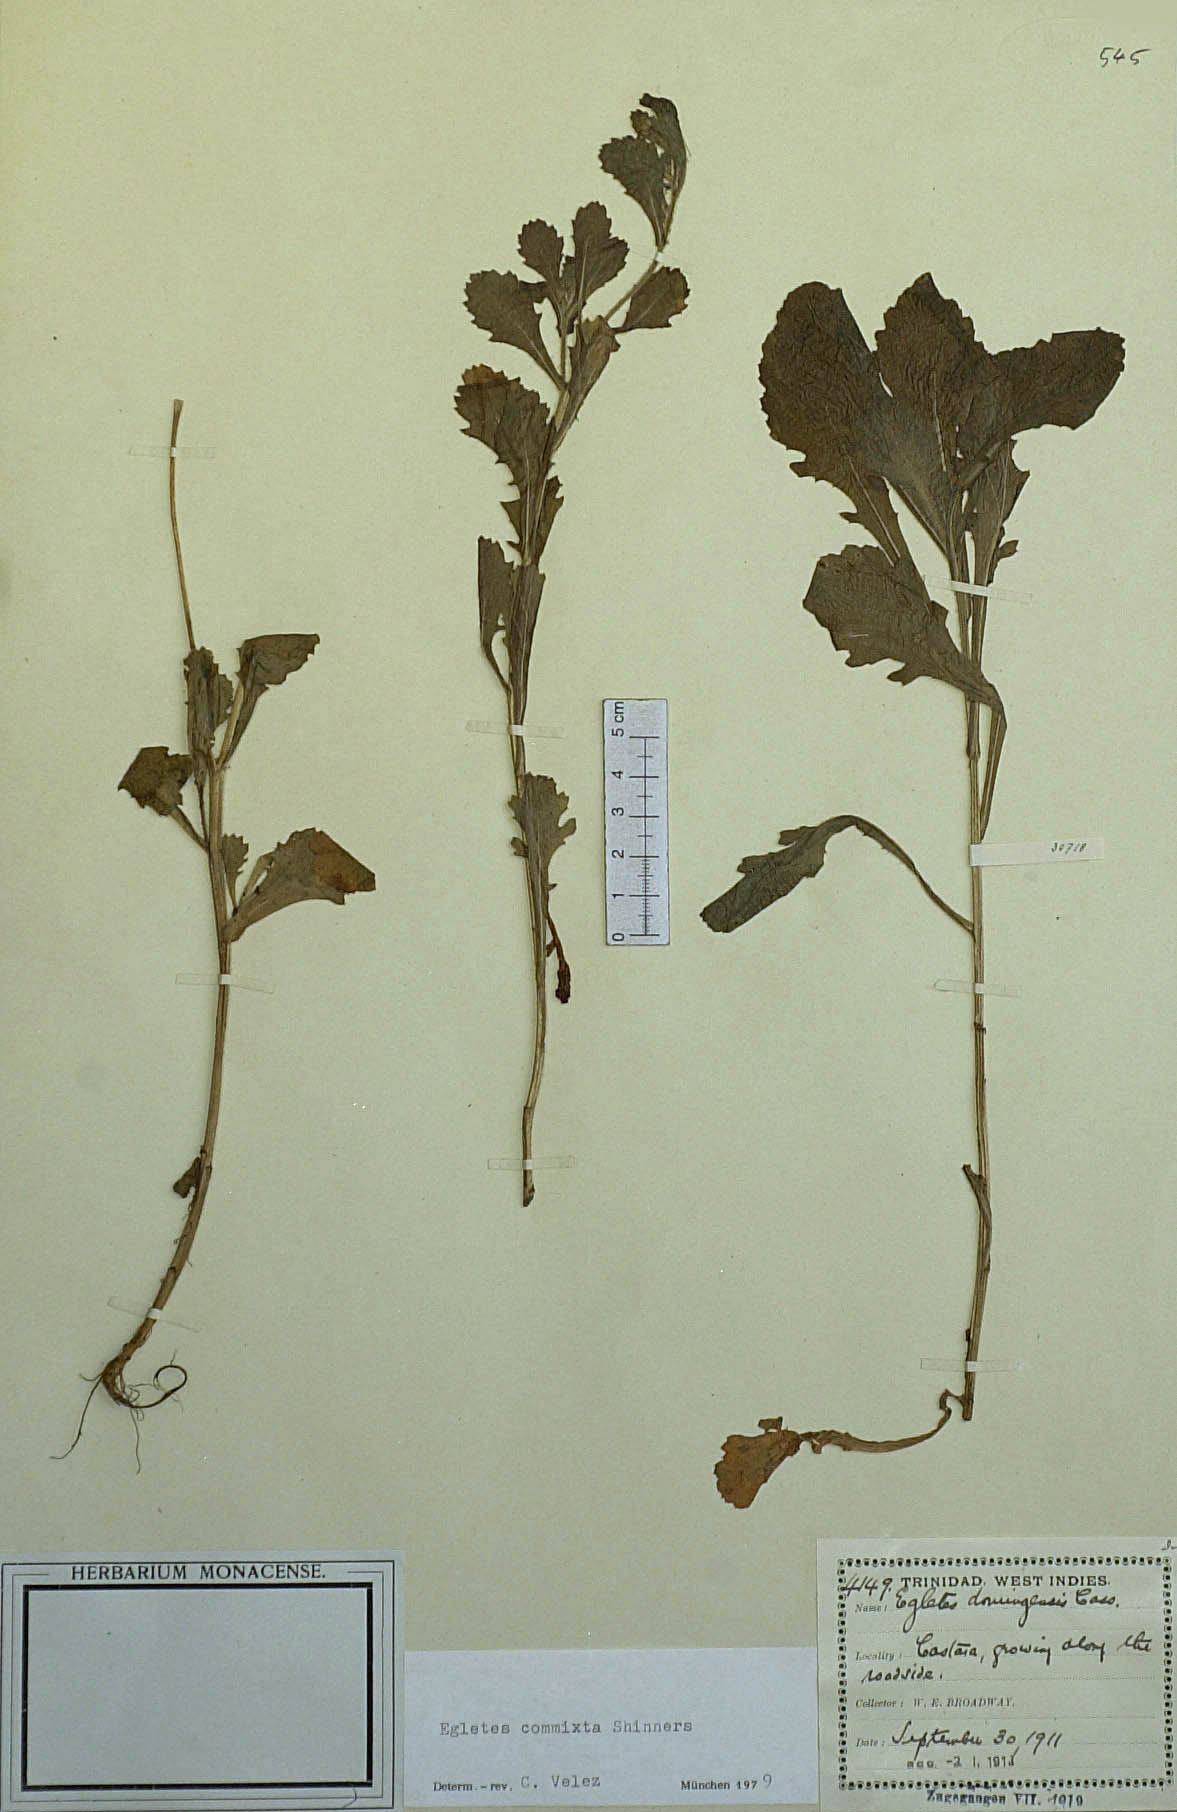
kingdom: Plantae
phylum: Tracheophyta
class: Magnoliopsida
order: Asterales
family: Asteraceae
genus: Egletes
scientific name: Egletes florida
